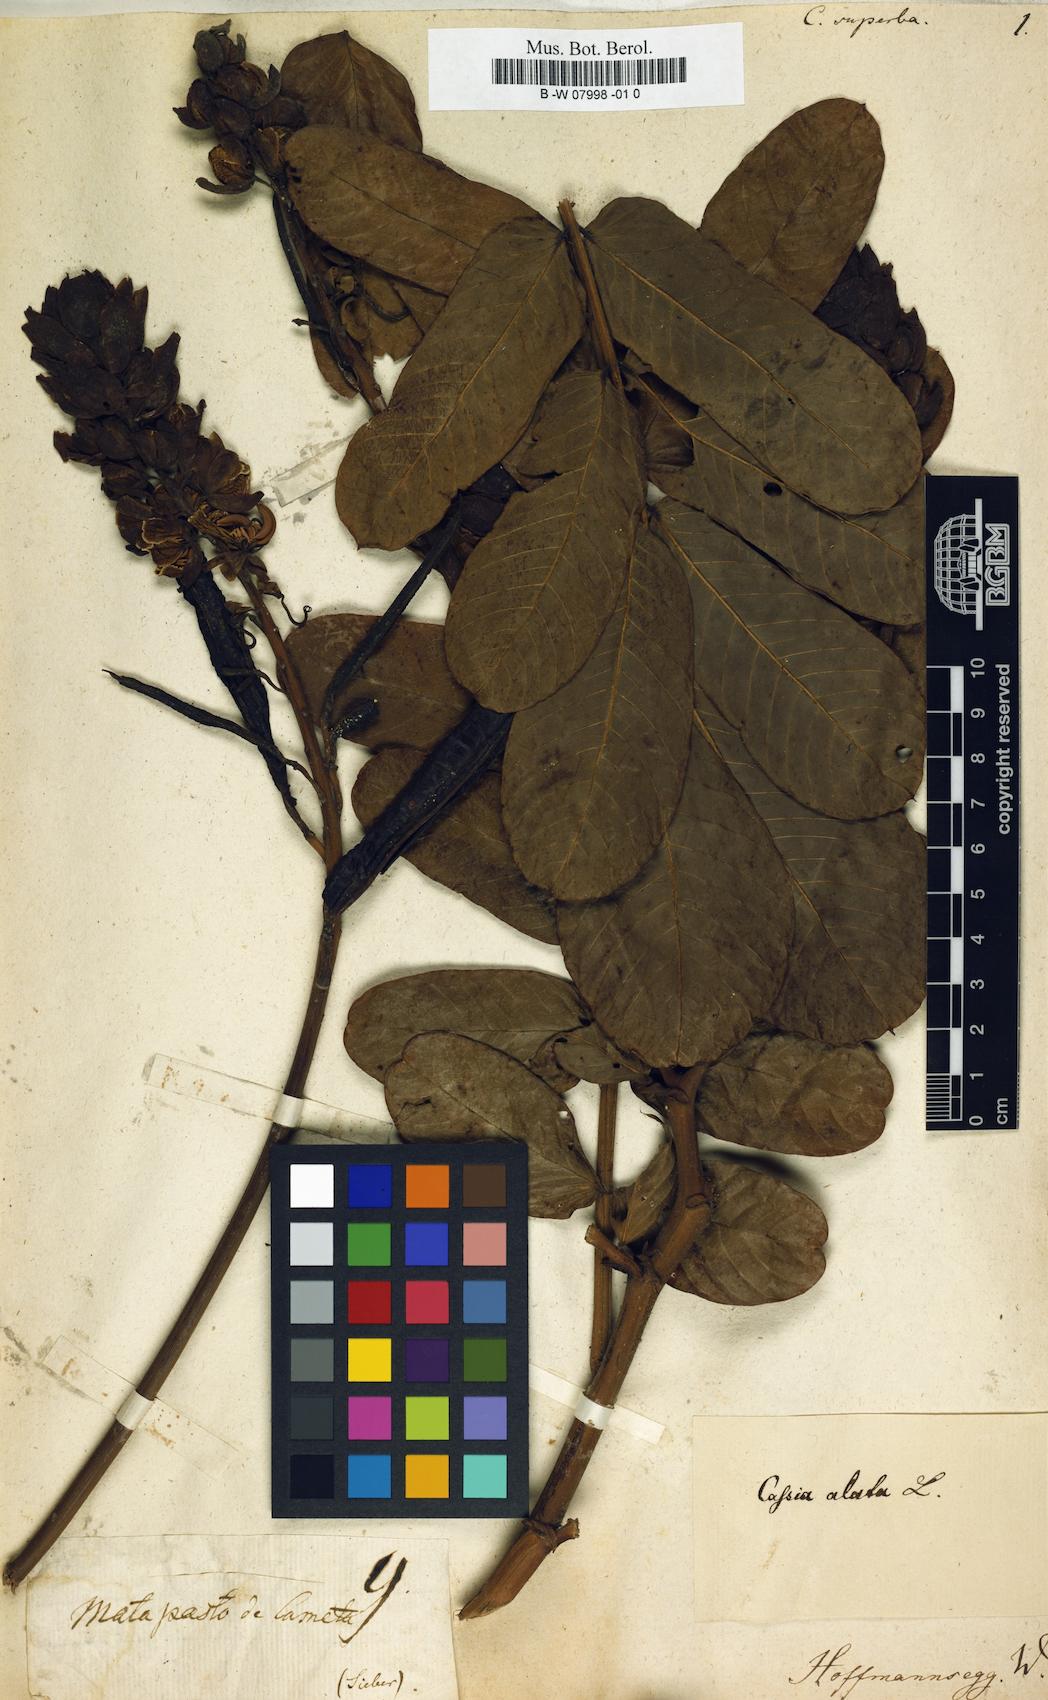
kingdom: Plantae
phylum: Tracheophyta
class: Magnoliopsida
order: Fabales
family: Fabaceae
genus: Cassia
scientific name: Cassia
